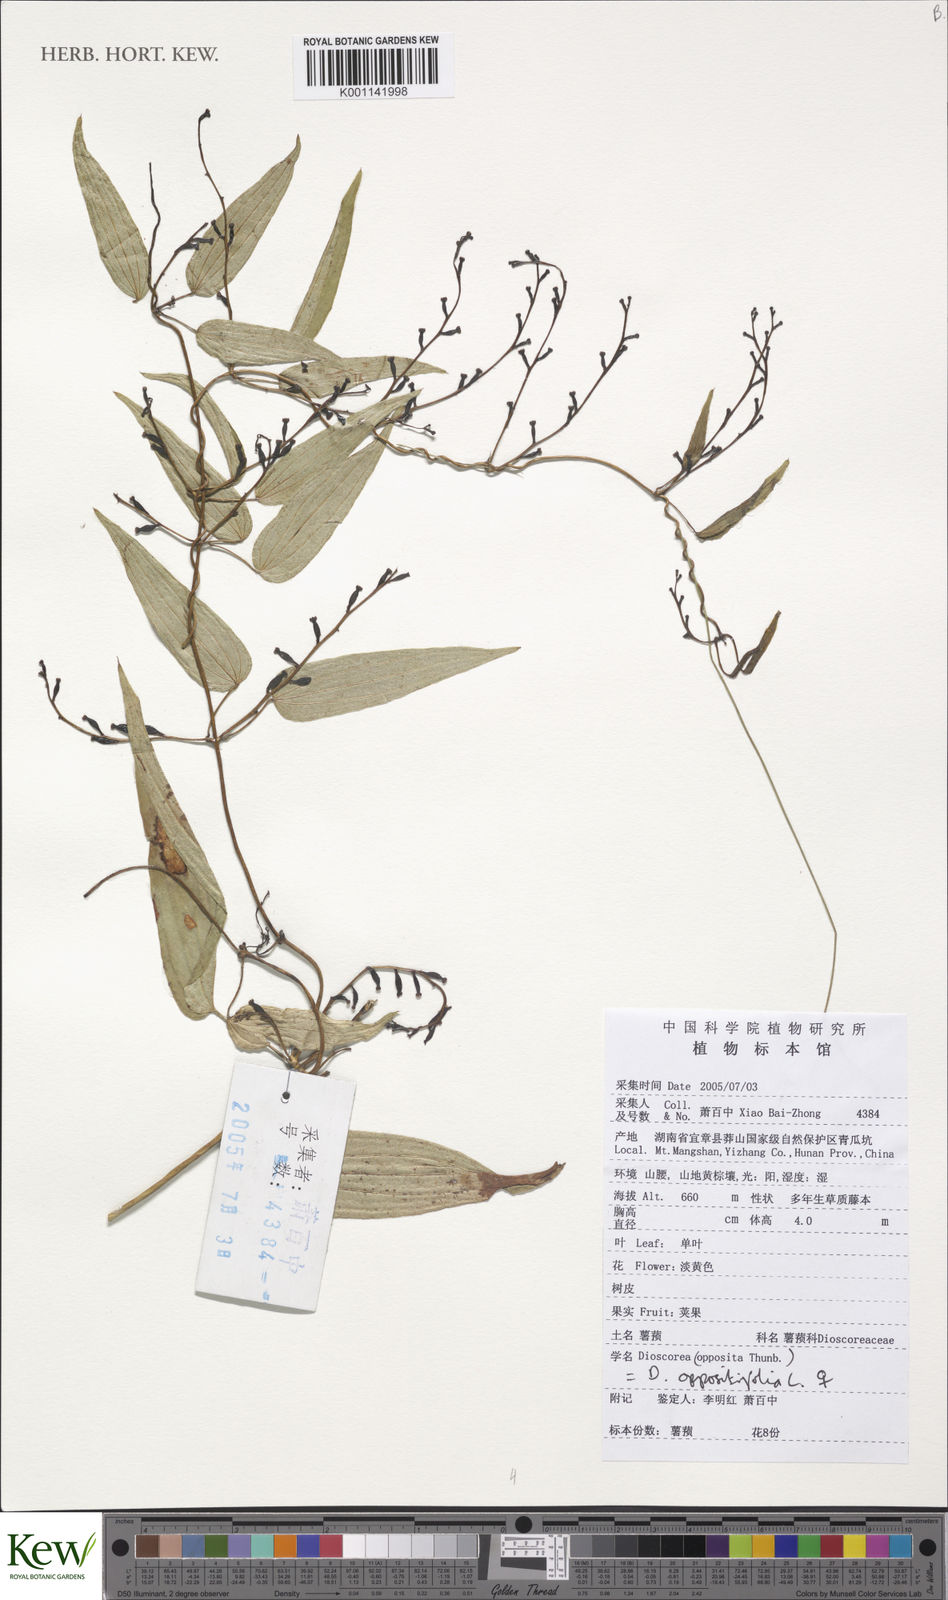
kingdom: Plantae
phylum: Tracheophyta
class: Liliopsida
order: Dioscoreales
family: Dioscoreaceae
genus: Dioscorea
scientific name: Dioscorea oppositifolia
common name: Chinese yam
